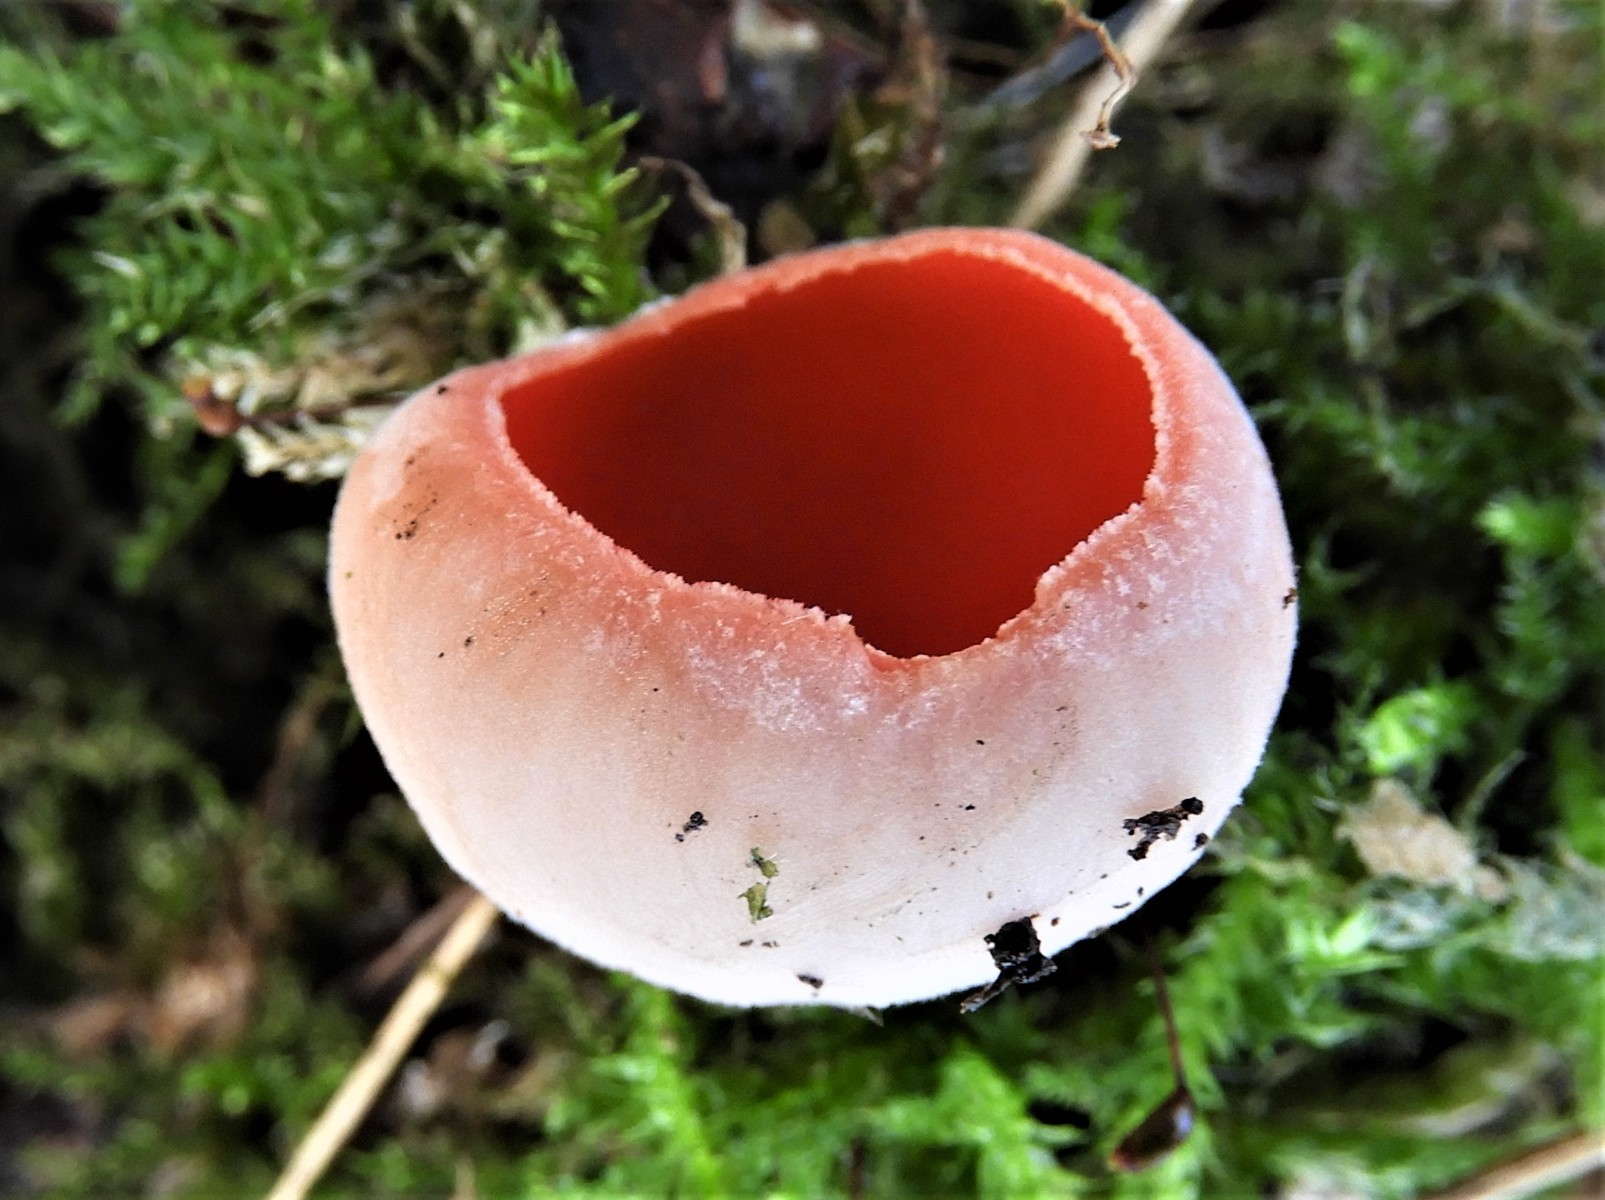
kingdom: Fungi
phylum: Ascomycota
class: Pezizomycetes
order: Pezizales
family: Sarcoscyphaceae
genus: Sarcoscypha
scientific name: Sarcoscypha austriaca
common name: krølhåret pragtbæger
